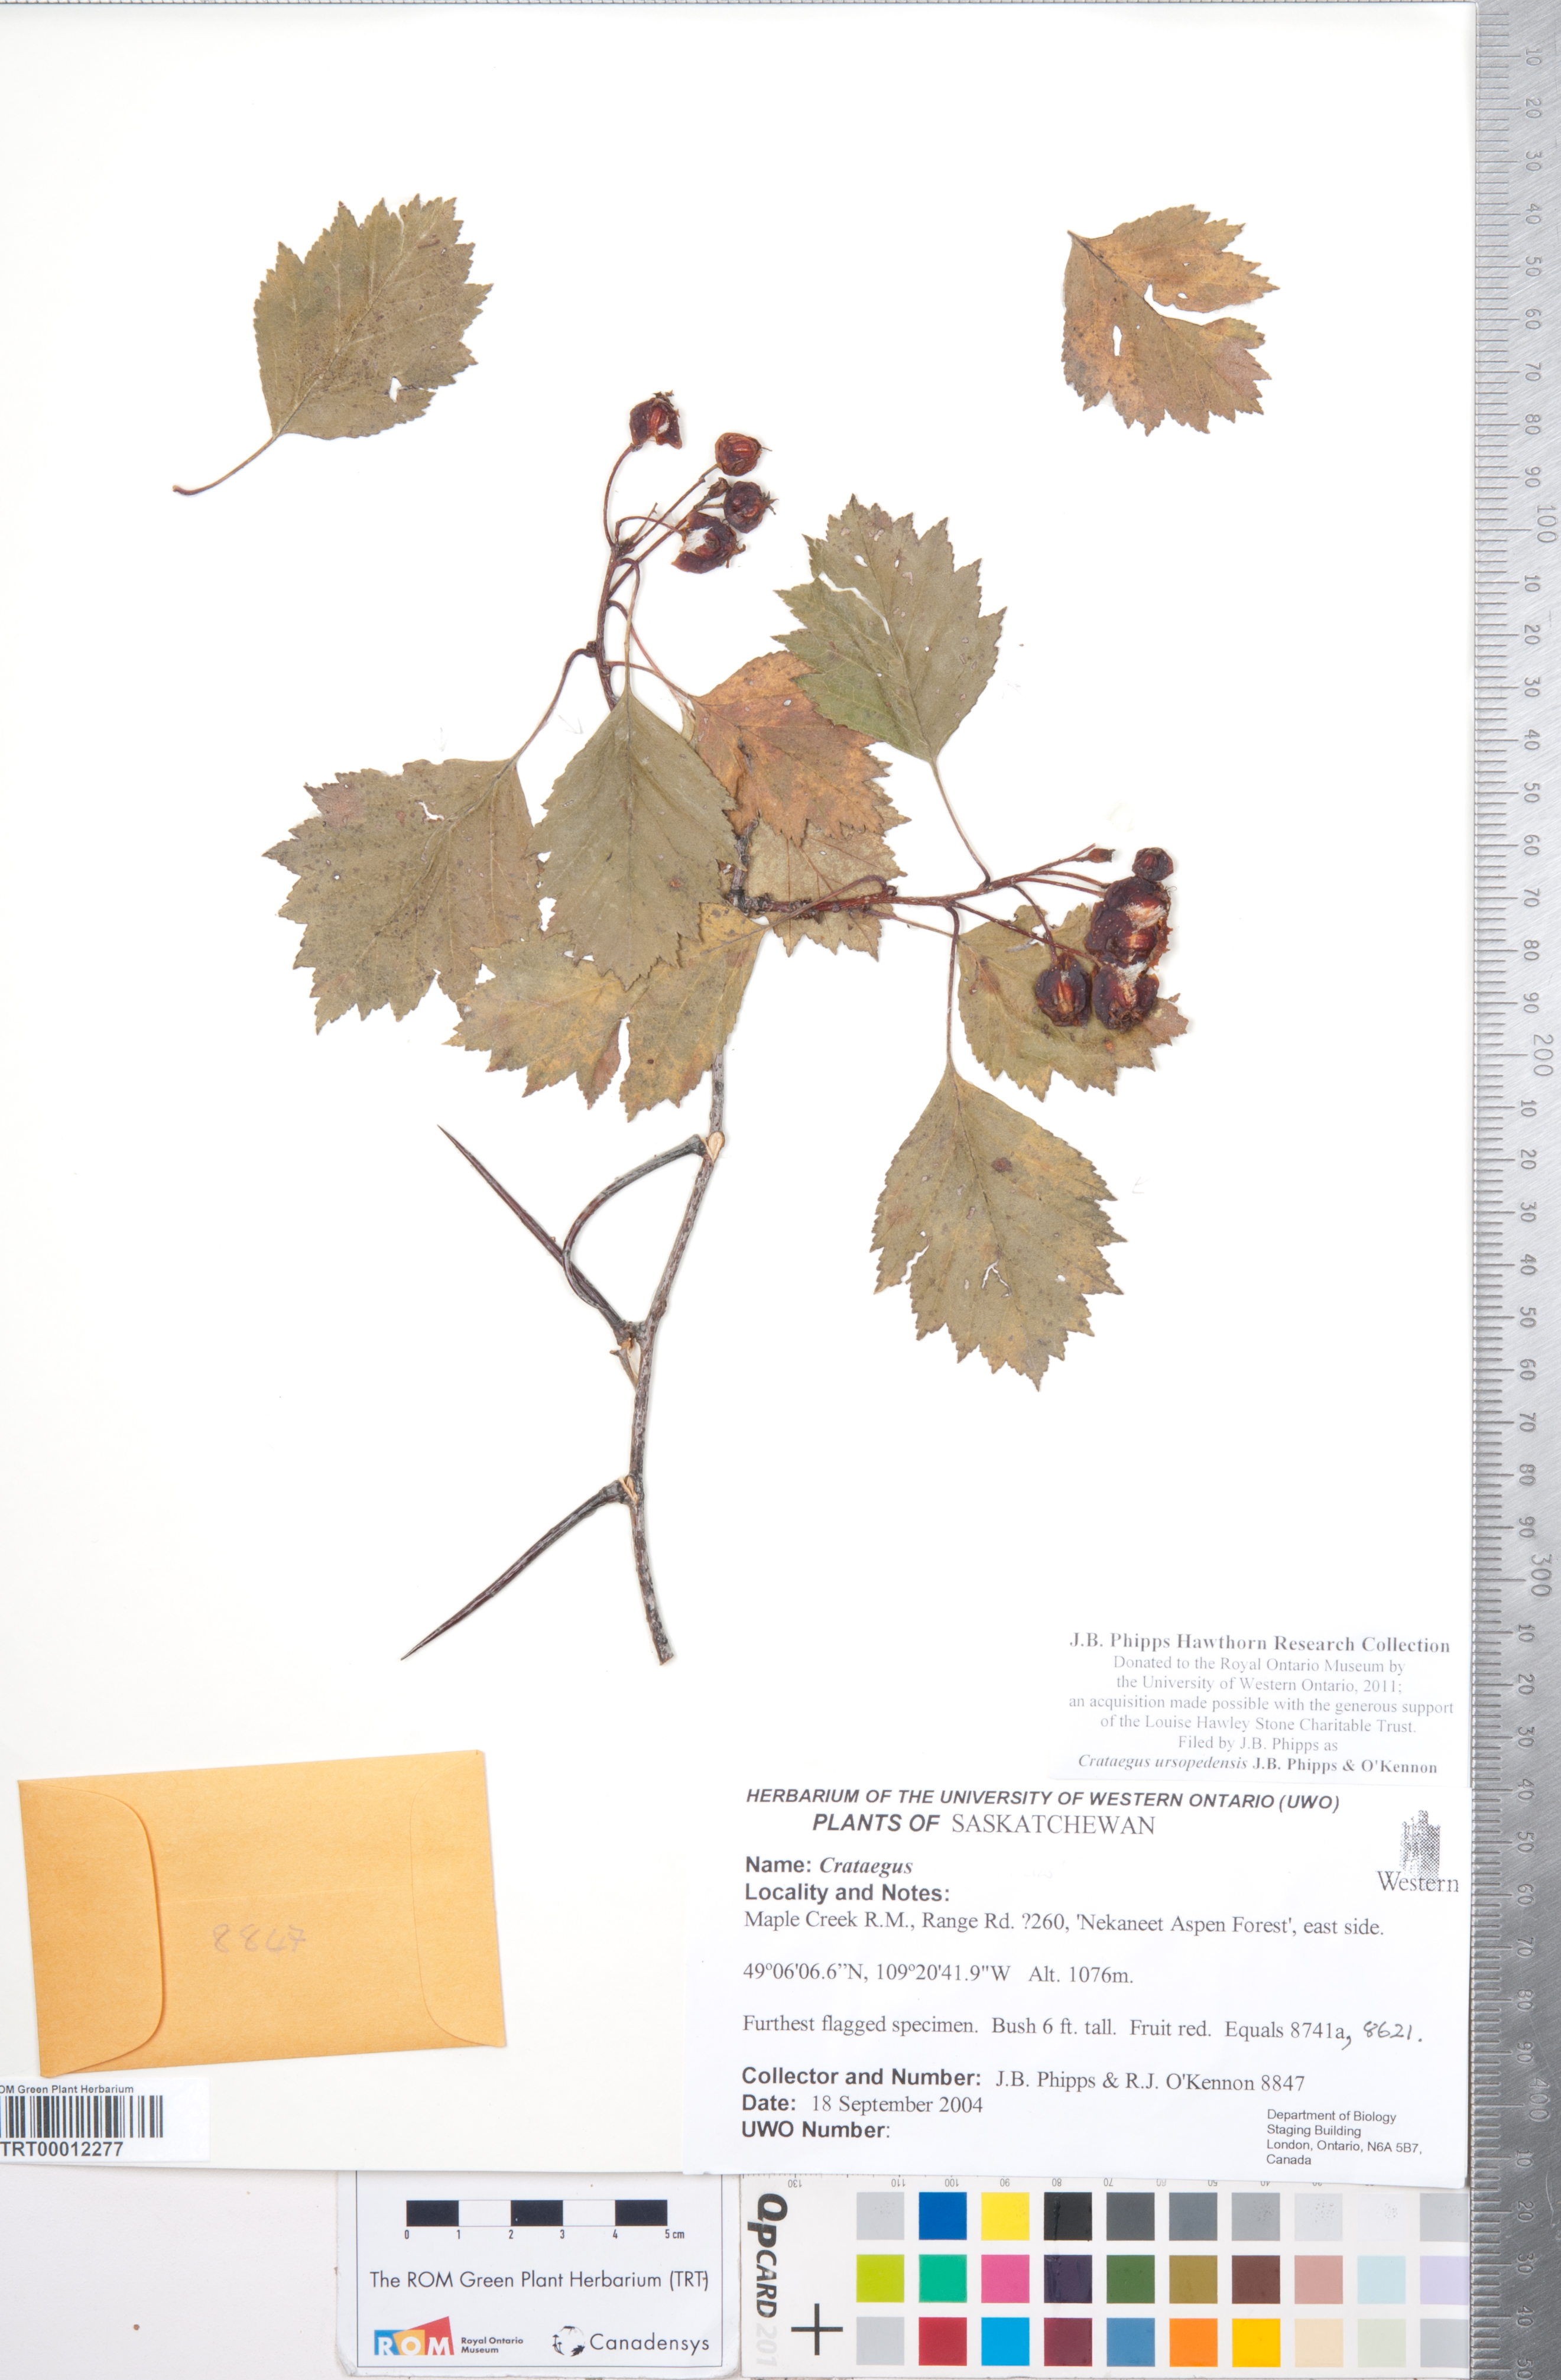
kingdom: Plantae
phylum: Tracheophyta
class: Magnoliopsida
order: Rosales
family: Rosaceae
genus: Crataegus
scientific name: Crataegus ursopedensis
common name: Bears paw hawthorn
